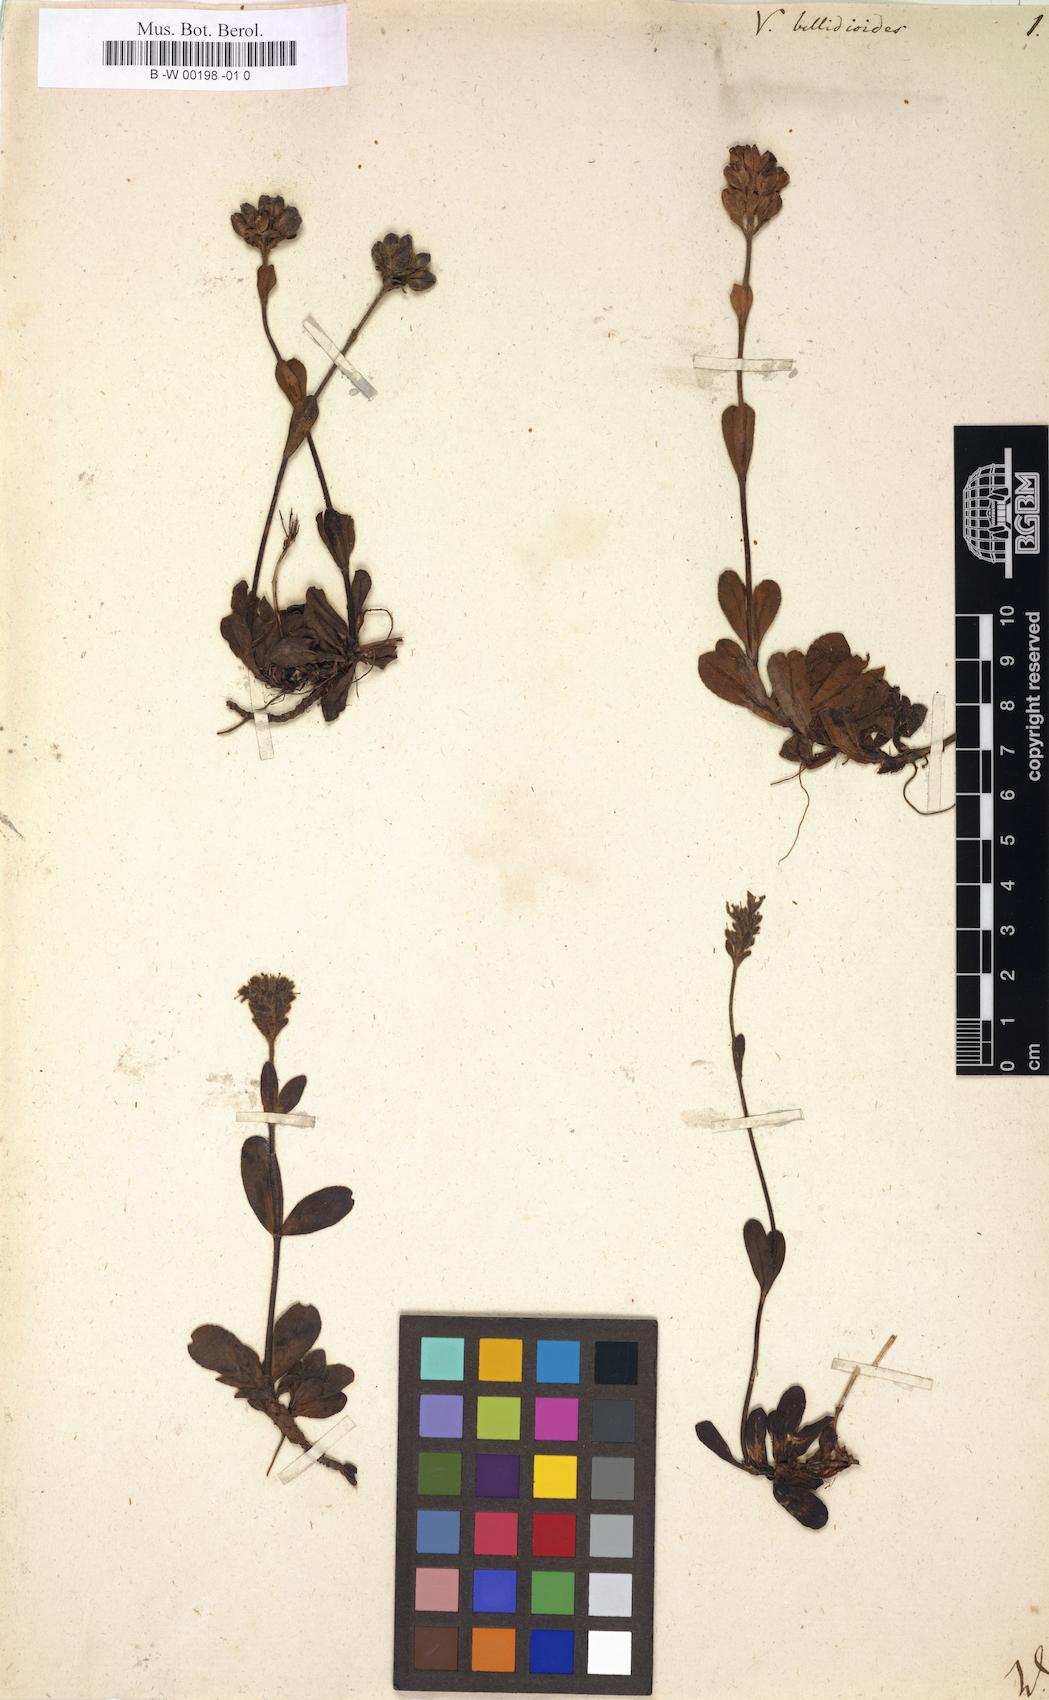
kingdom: Plantae
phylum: Tracheophyta
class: Magnoliopsida
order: Lamiales
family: Plantaginaceae
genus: Veronica
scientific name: Veronica bellidioides
